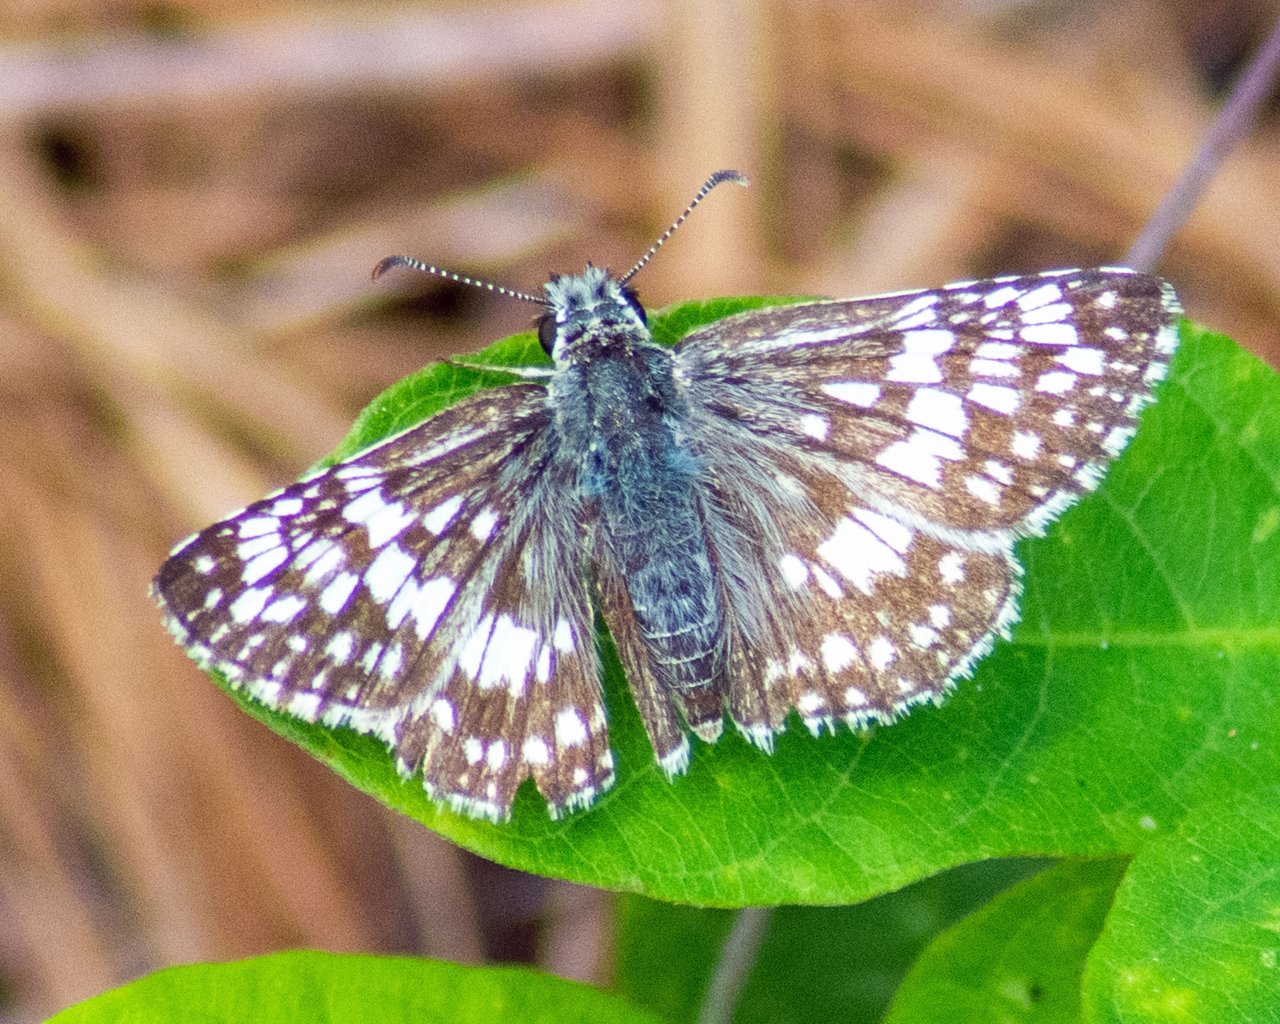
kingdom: Animalia
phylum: Arthropoda
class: Insecta
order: Lepidoptera
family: Hesperiidae
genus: Pyrgus
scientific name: Pyrgus communis
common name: White Checkered-Skipper
